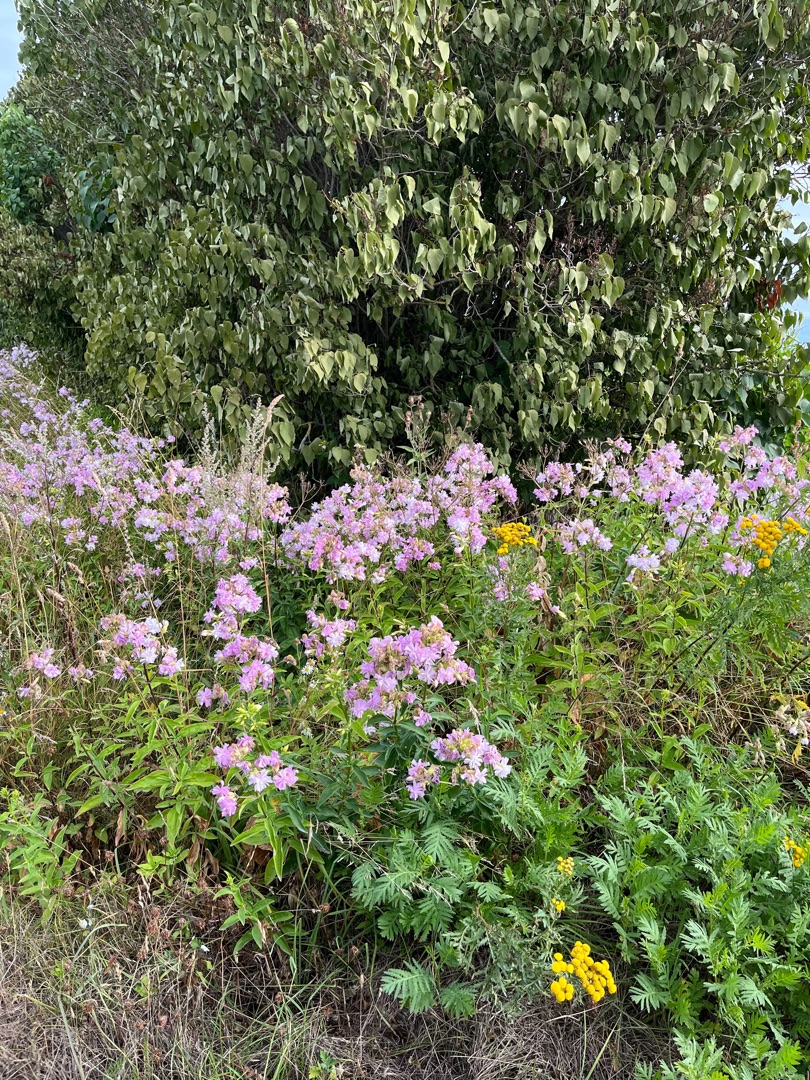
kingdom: Plantae
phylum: Tracheophyta
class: Magnoliopsida
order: Asterales
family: Asteraceae
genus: Tanacetum
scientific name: Tanacetum vulgare
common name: Rejnfan
